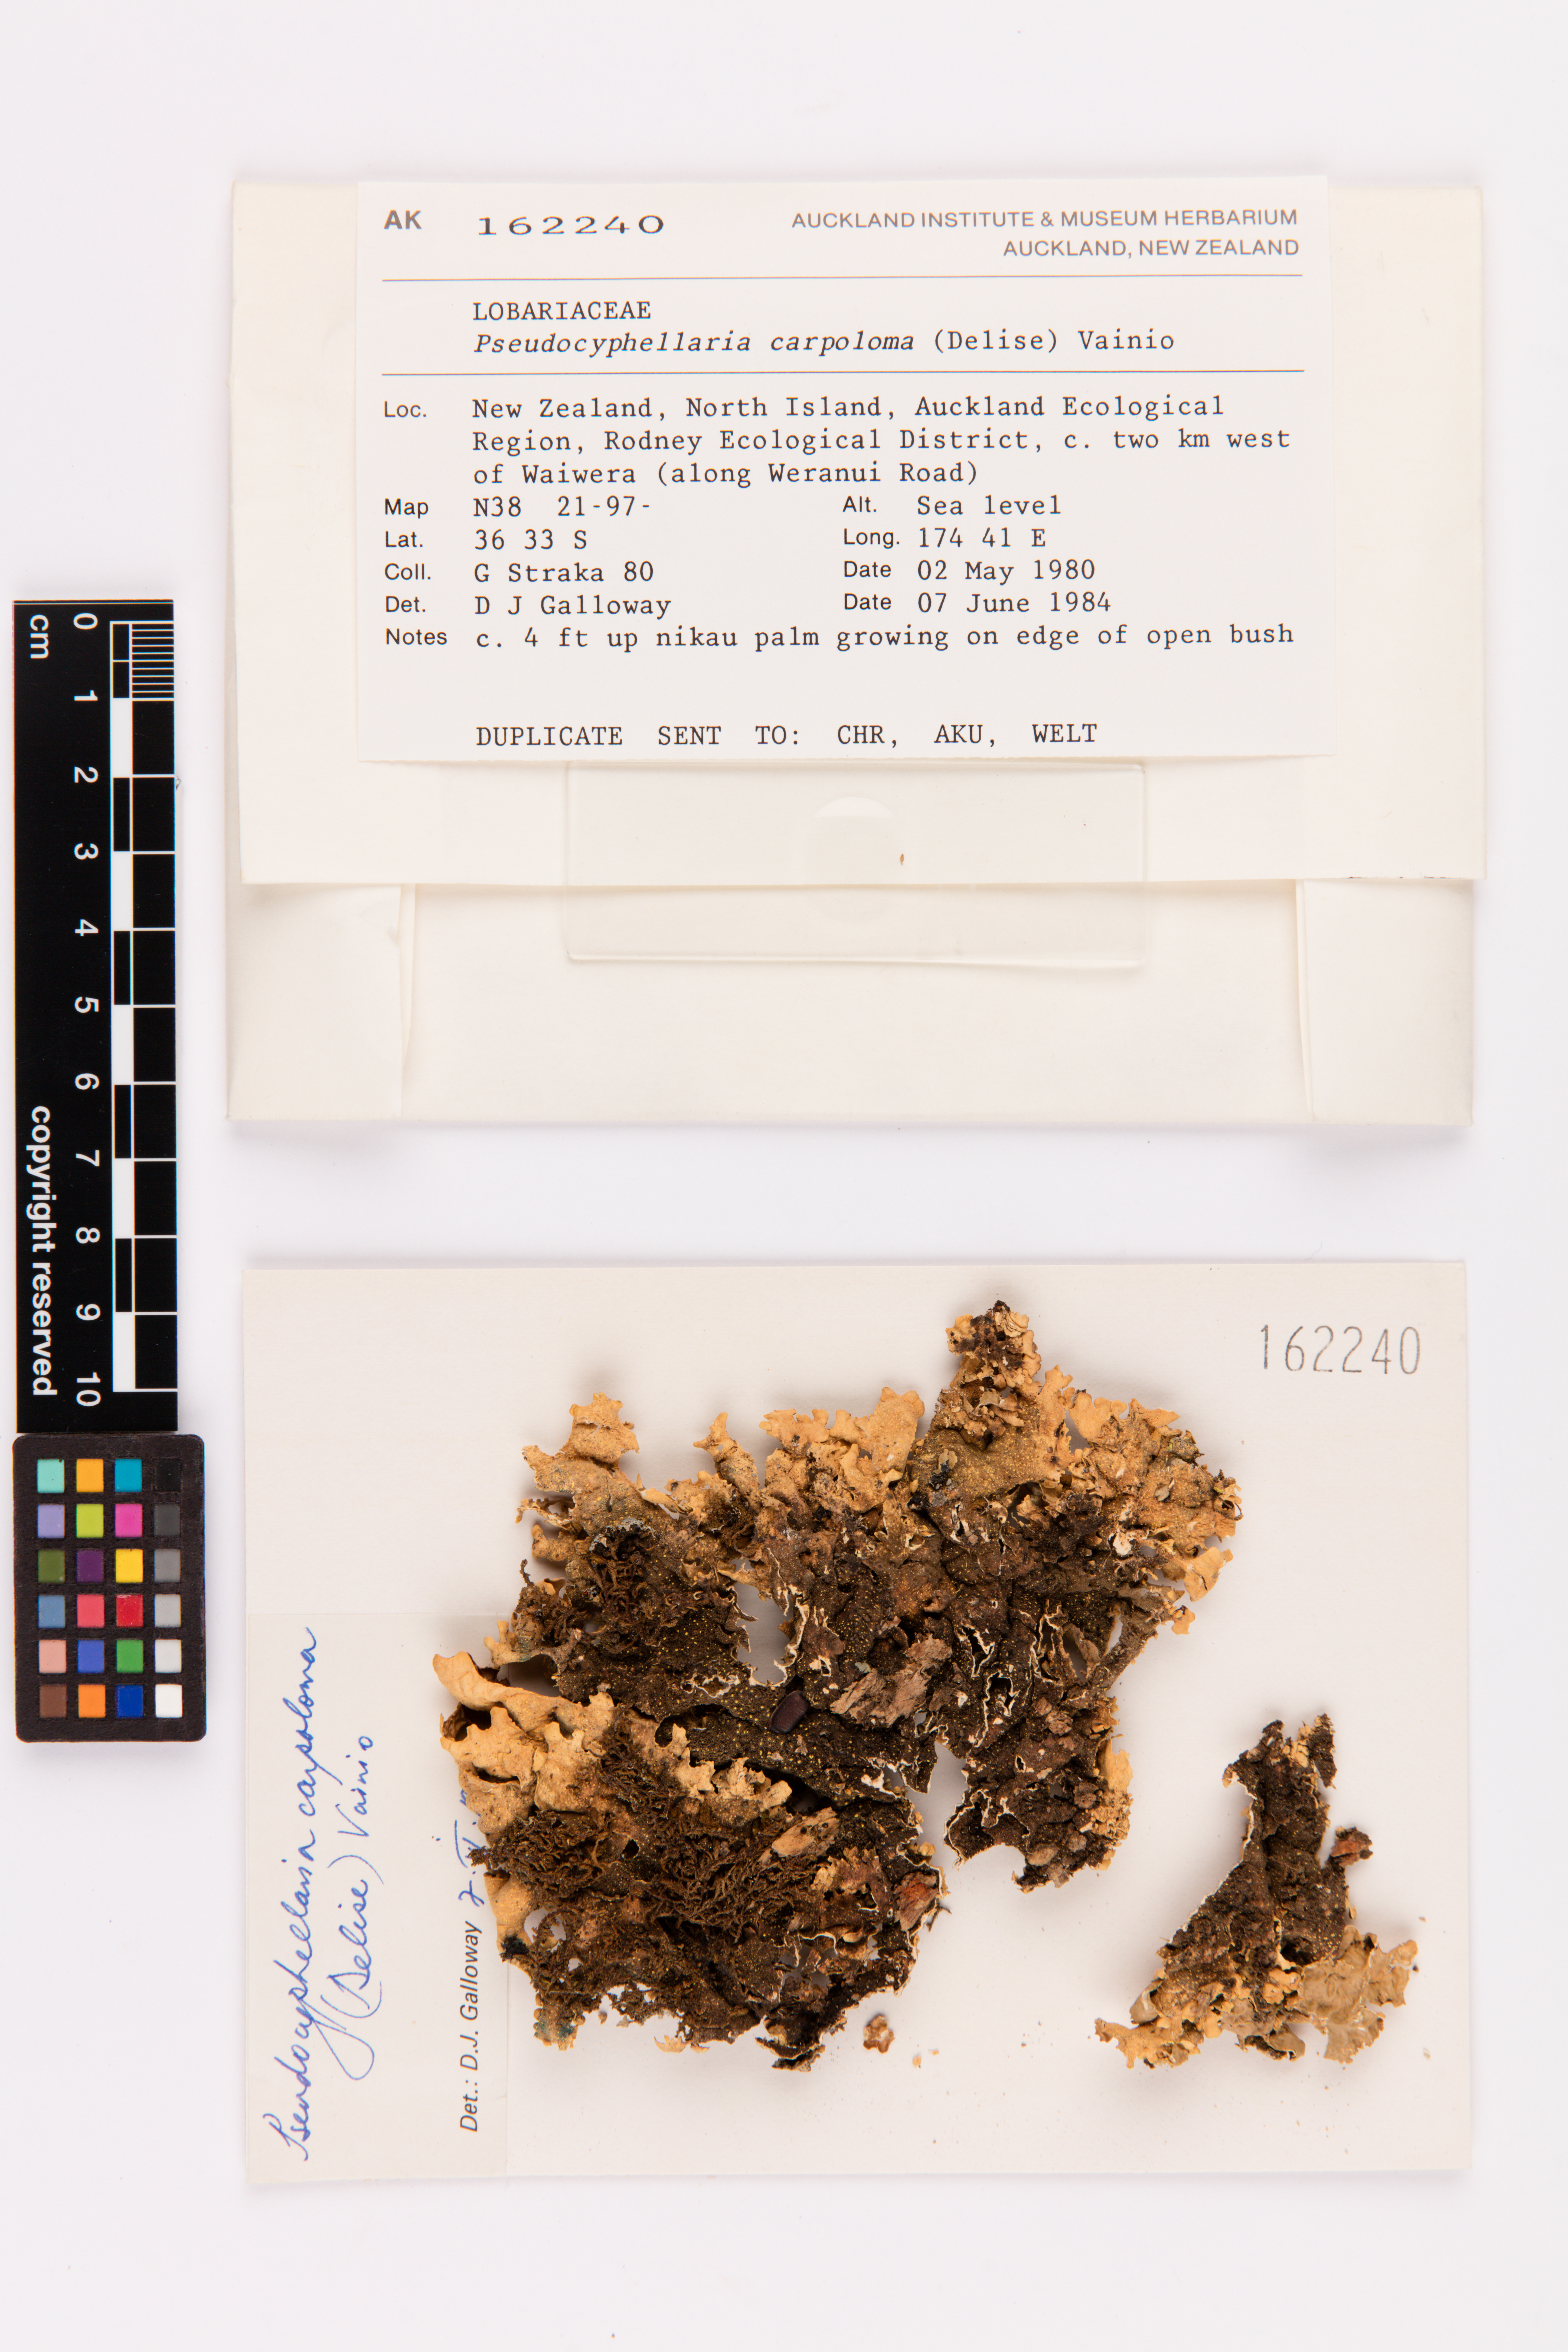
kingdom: Fungi
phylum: Ascomycota
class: Lecanoromycetes
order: Peltigerales
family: Lobariaceae
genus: Pseudocyphellaria
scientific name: Pseudocyphellaria carpoloma
